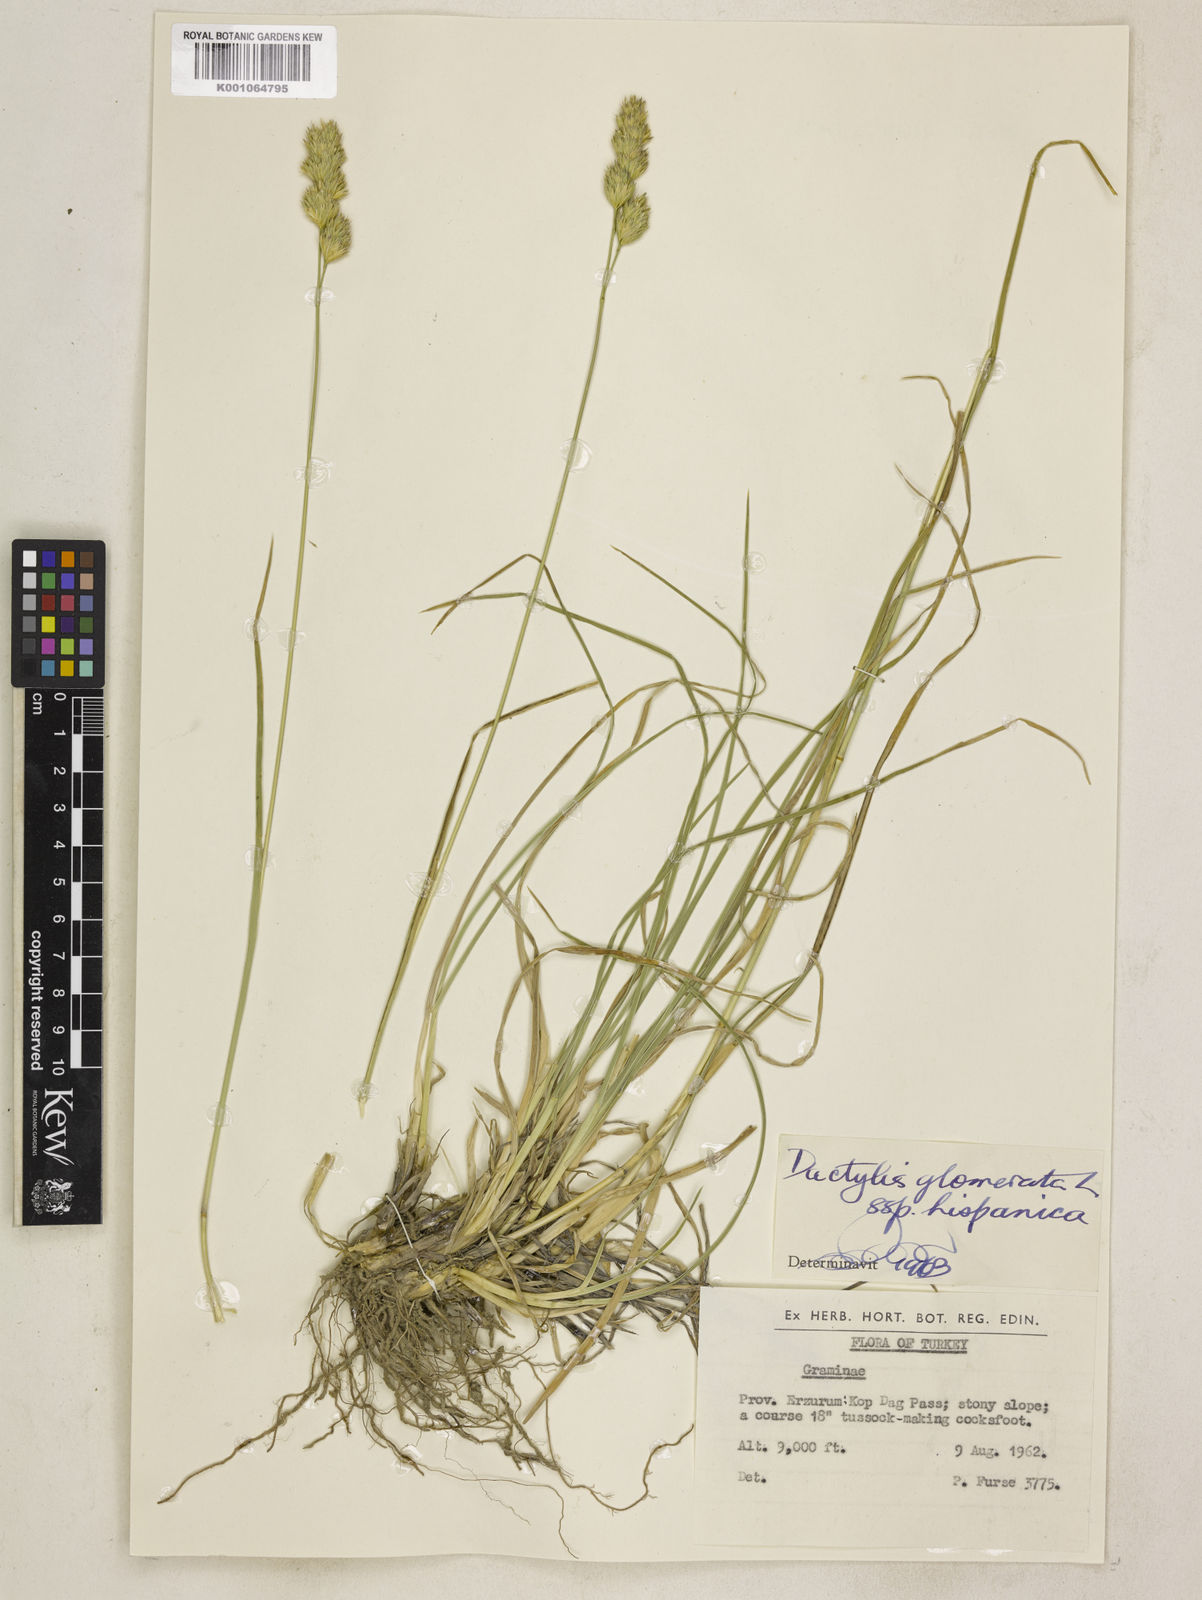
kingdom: Plantae
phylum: Tracheophyta
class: Liliopsida
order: Poales
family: Poaceae
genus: Dactylis
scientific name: Dactylis glomerata
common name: Orchardgrass
